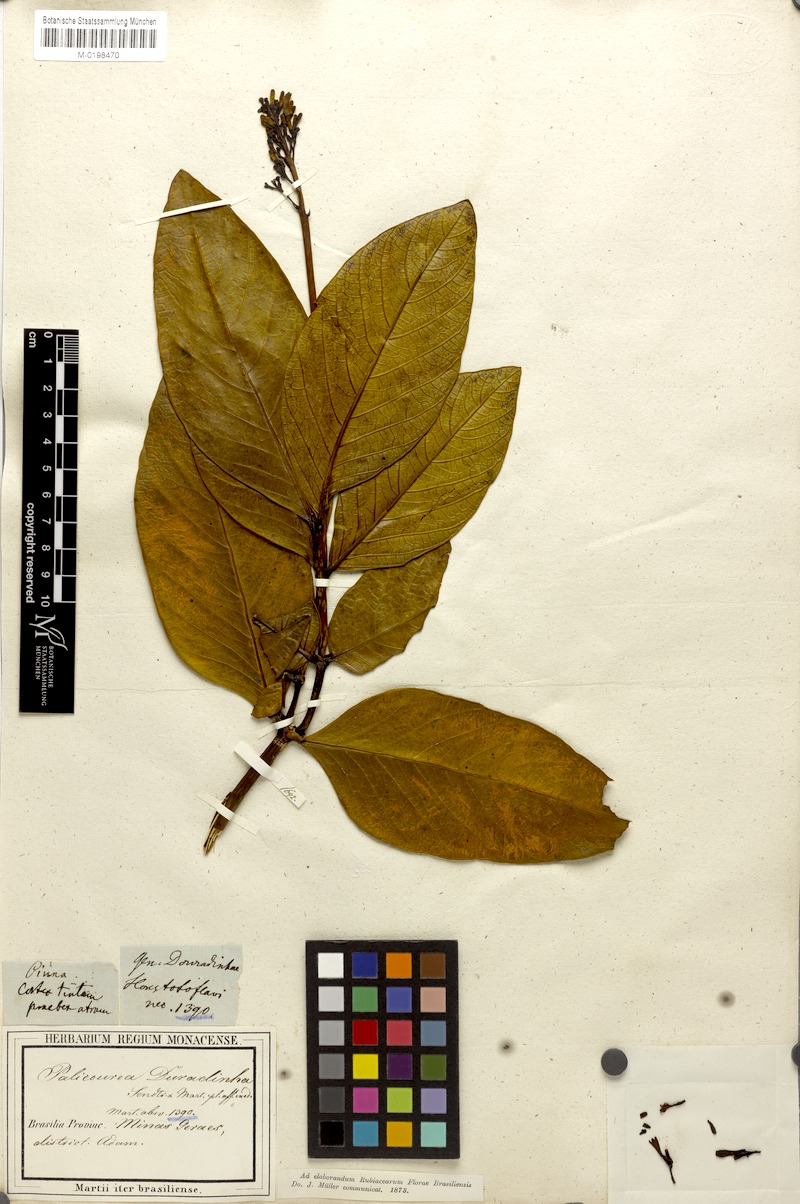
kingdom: Plantae
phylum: Tracheophyta
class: Magnoliopsida
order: Gentianales
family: Rubiaceae
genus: Palicourea
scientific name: Palicourea rigida
